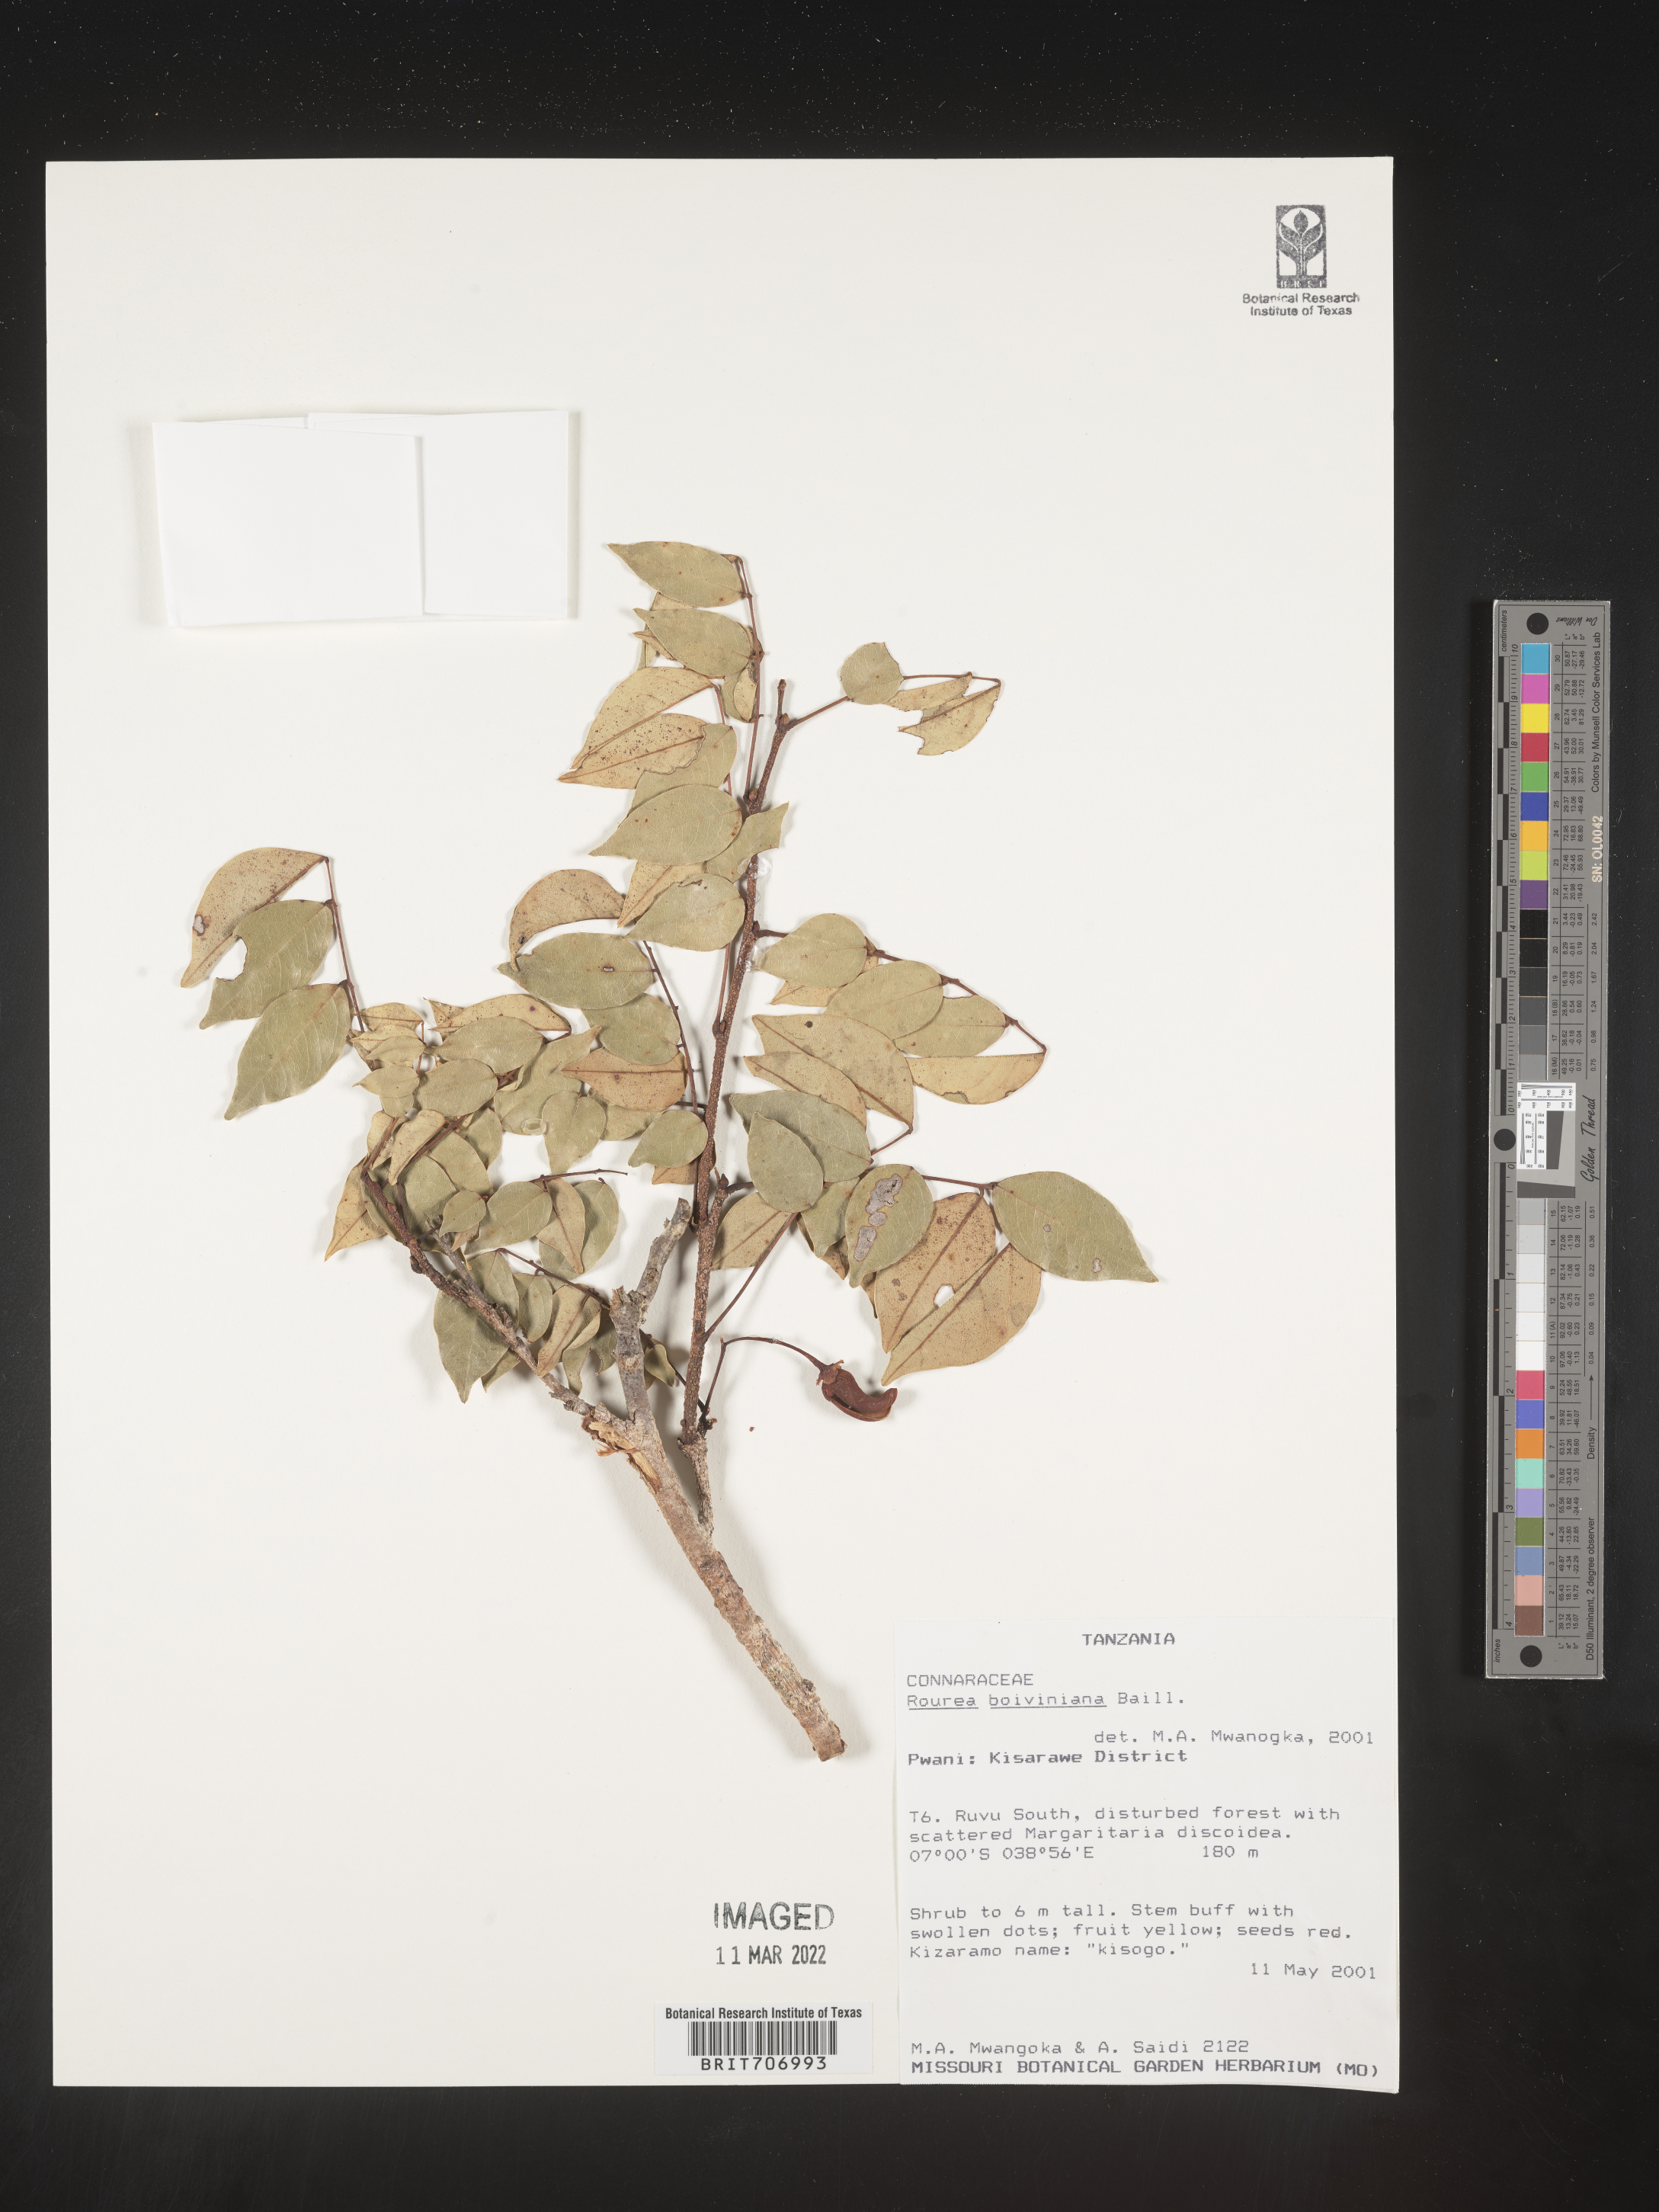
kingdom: Plantae
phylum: Tracheophyta
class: Magnoliopsida
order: Oxalidales
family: Connaraceae
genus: Rourea
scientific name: Rourea
